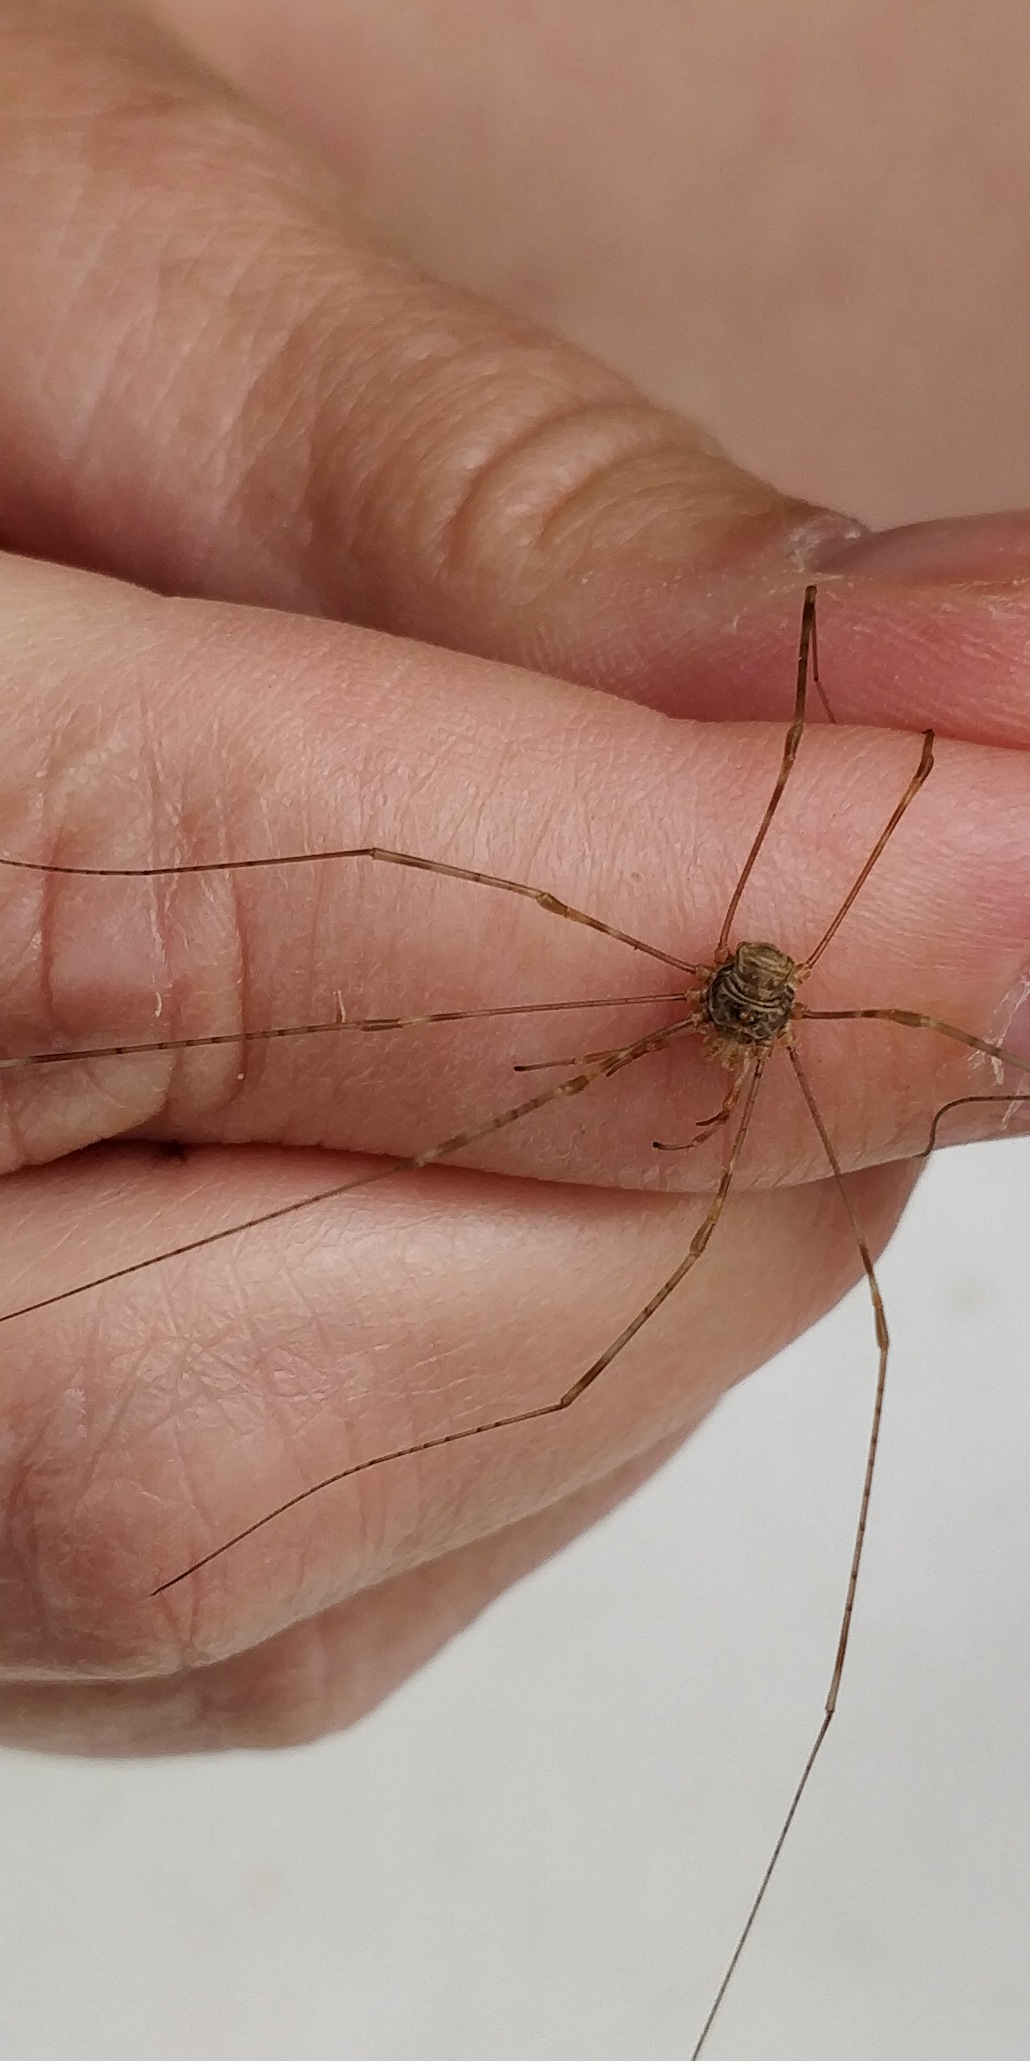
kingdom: Animalia
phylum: Arthropoda
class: Arachnida
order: Opiliones
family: Phalangiidae
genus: Dicranopalpus
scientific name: Dicranopalpus ramosus
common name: Gaffelmejer
